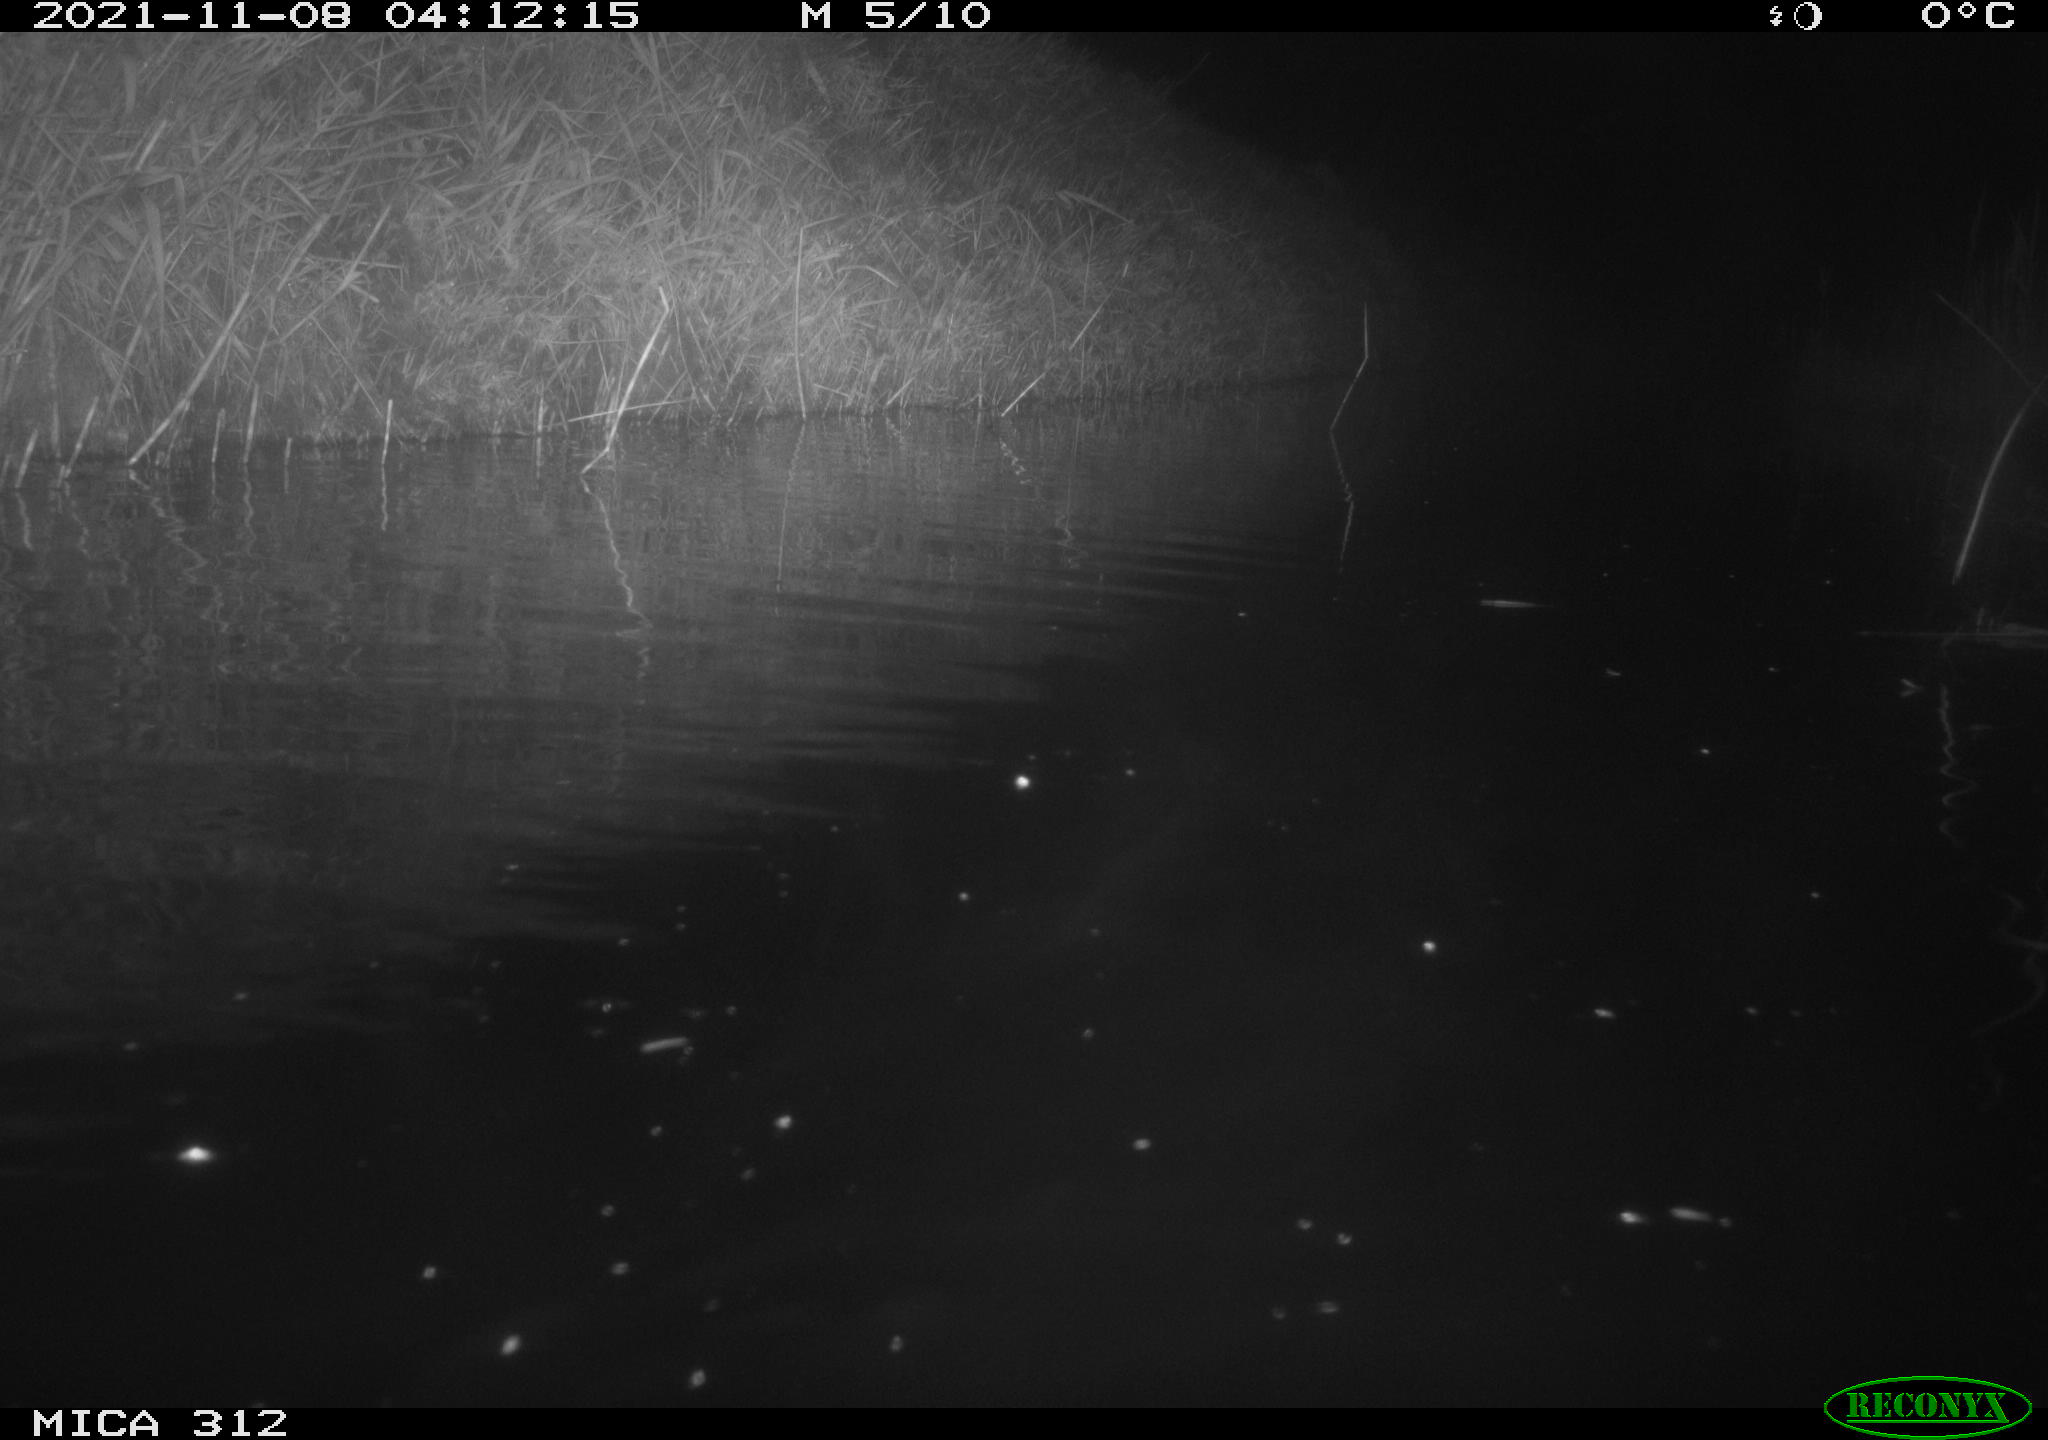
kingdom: Animalia
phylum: Chordata
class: Mammalia
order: Rodentia
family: Cricetidae
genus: Ondatra
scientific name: Ondatra zibethicus
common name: Muskrat
